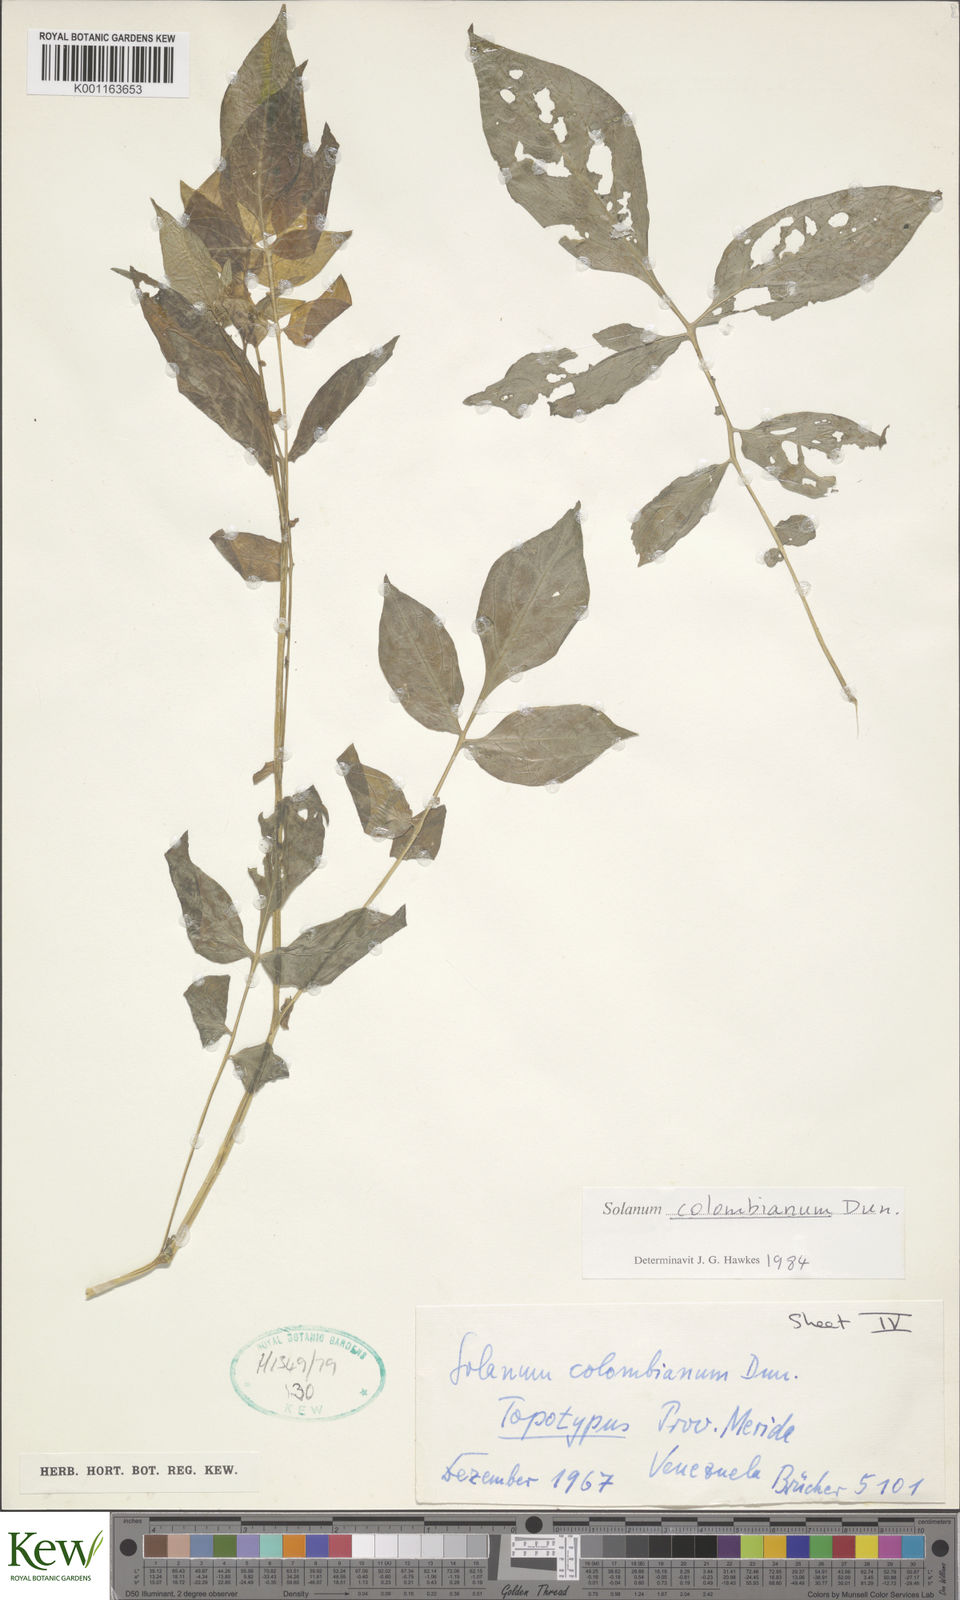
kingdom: Plantae
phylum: Tracheophyta
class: Magnoliopsida
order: Solanales
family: Solanaceae
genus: Solanum
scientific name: Solanum colombianum
